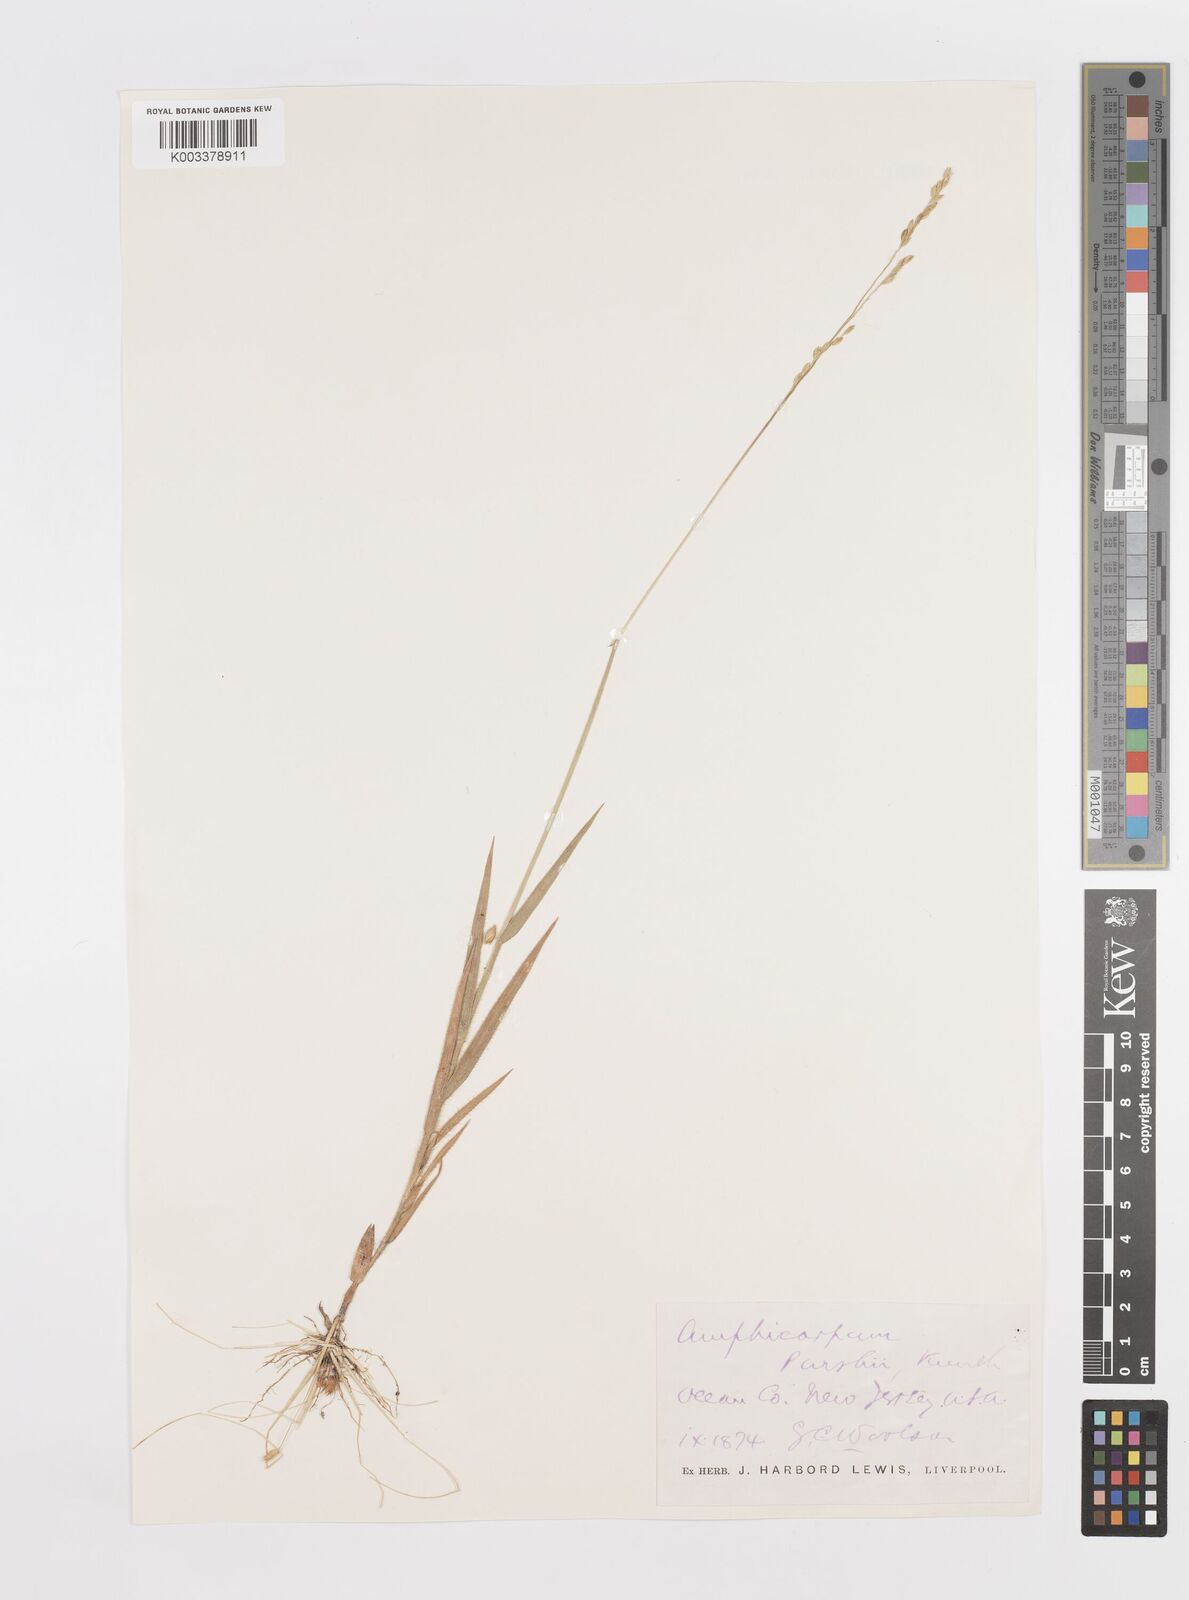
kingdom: Plantae
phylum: Tracheophyta
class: Liliopsida
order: Poales
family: Poaceae
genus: Amphicarpum
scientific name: Amphicarpum
